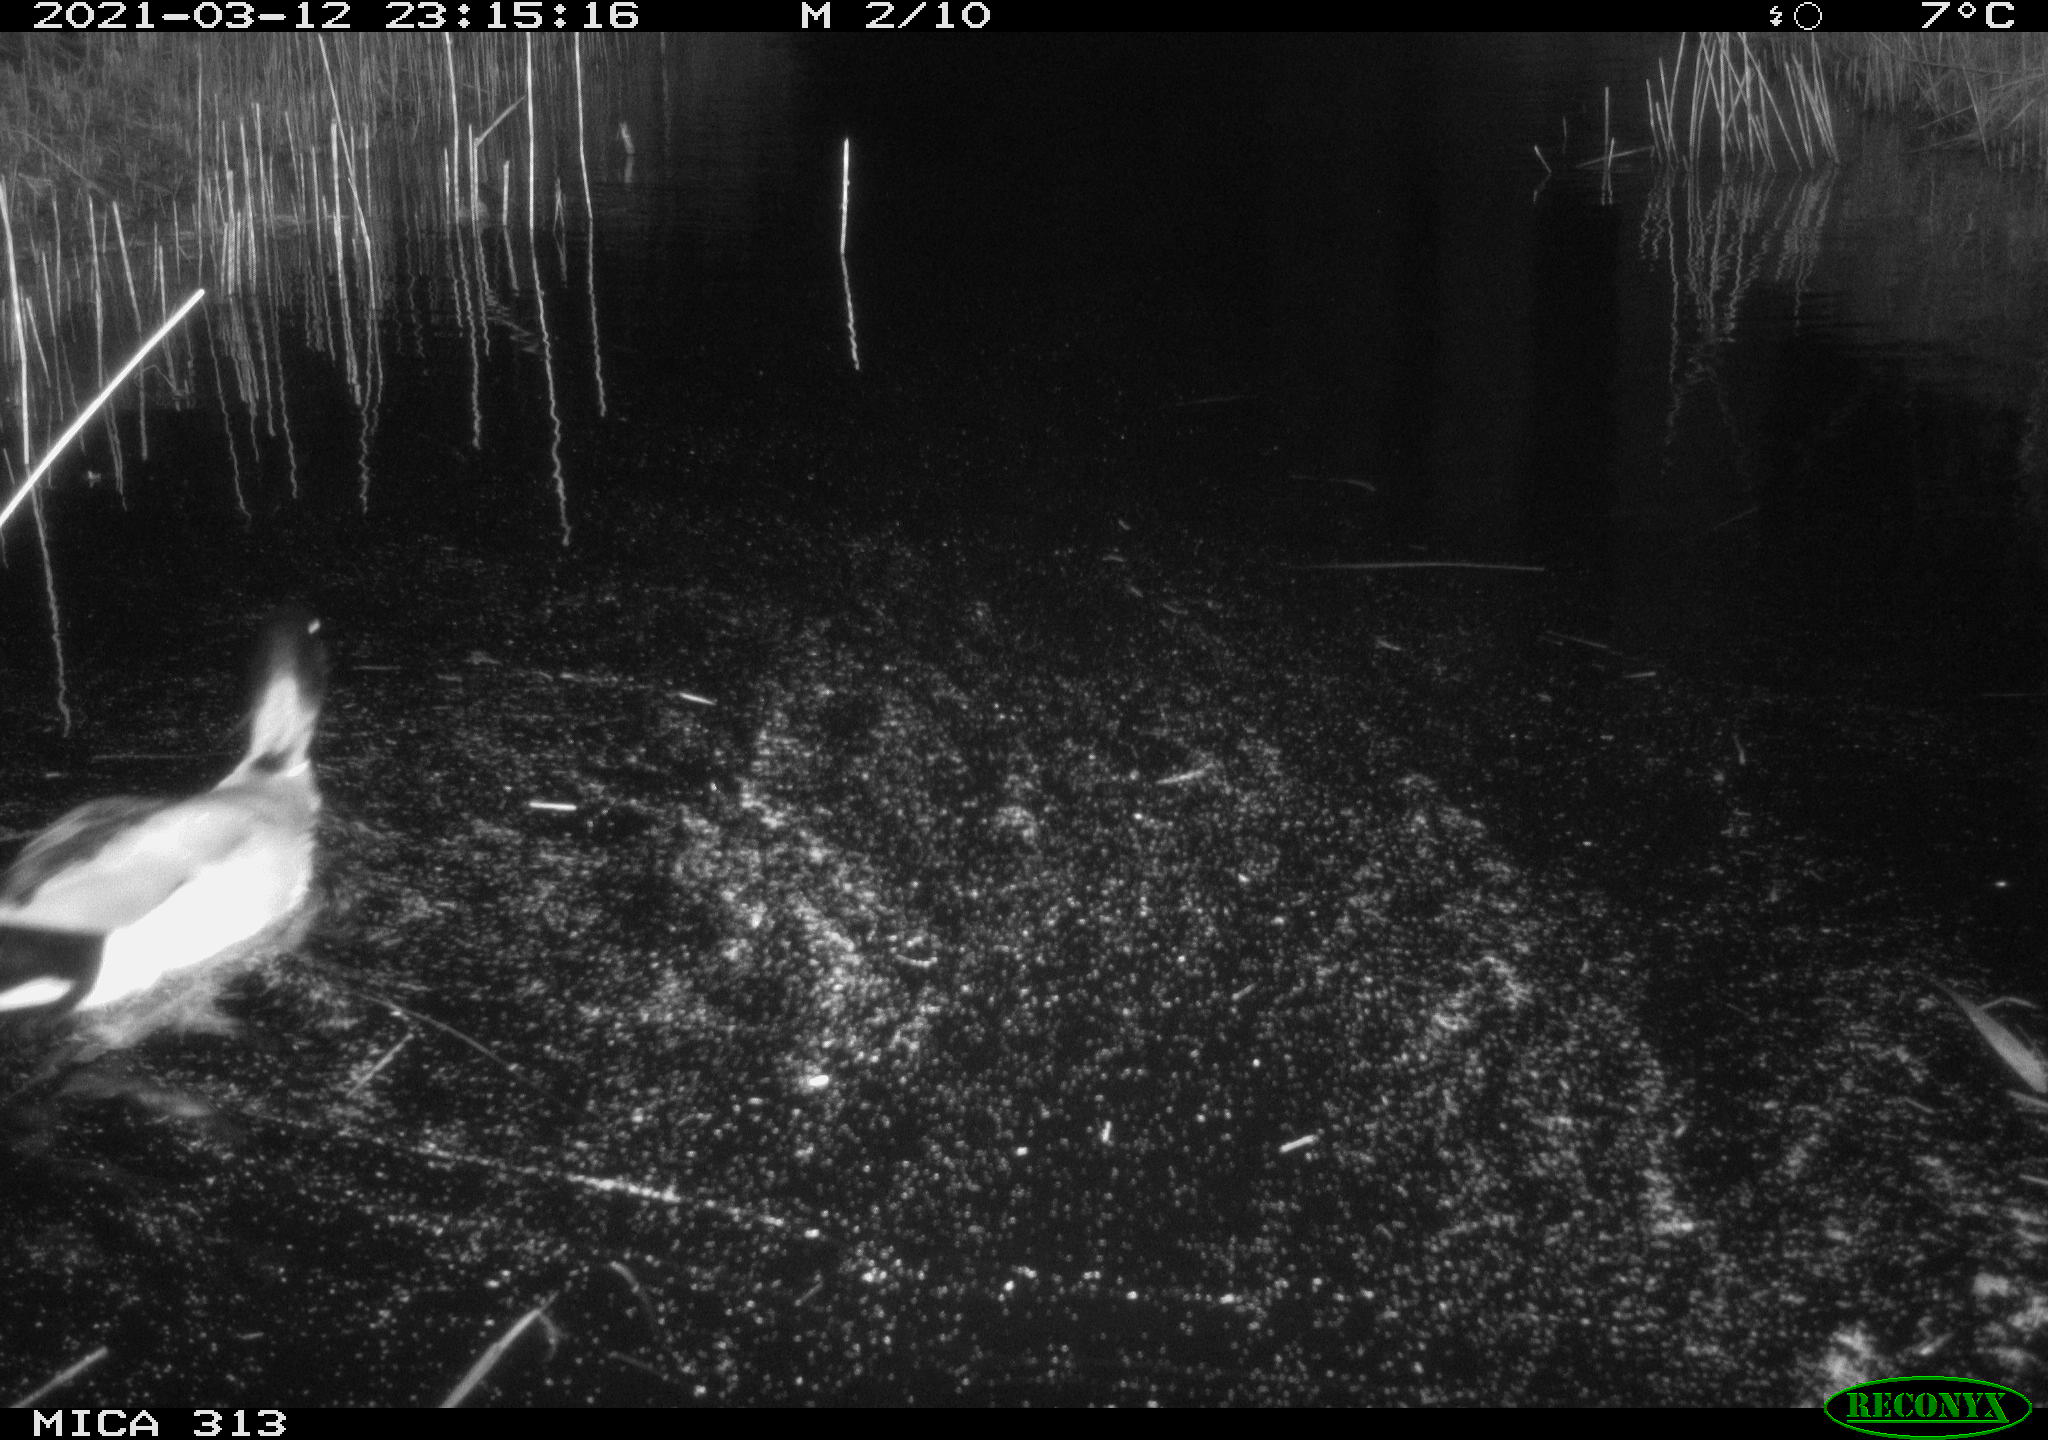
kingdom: Animalia
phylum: Chordata
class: Aves
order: Anseriformes
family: Anatidae
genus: Anas
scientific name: Anas platyrhynchos
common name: Mallard
